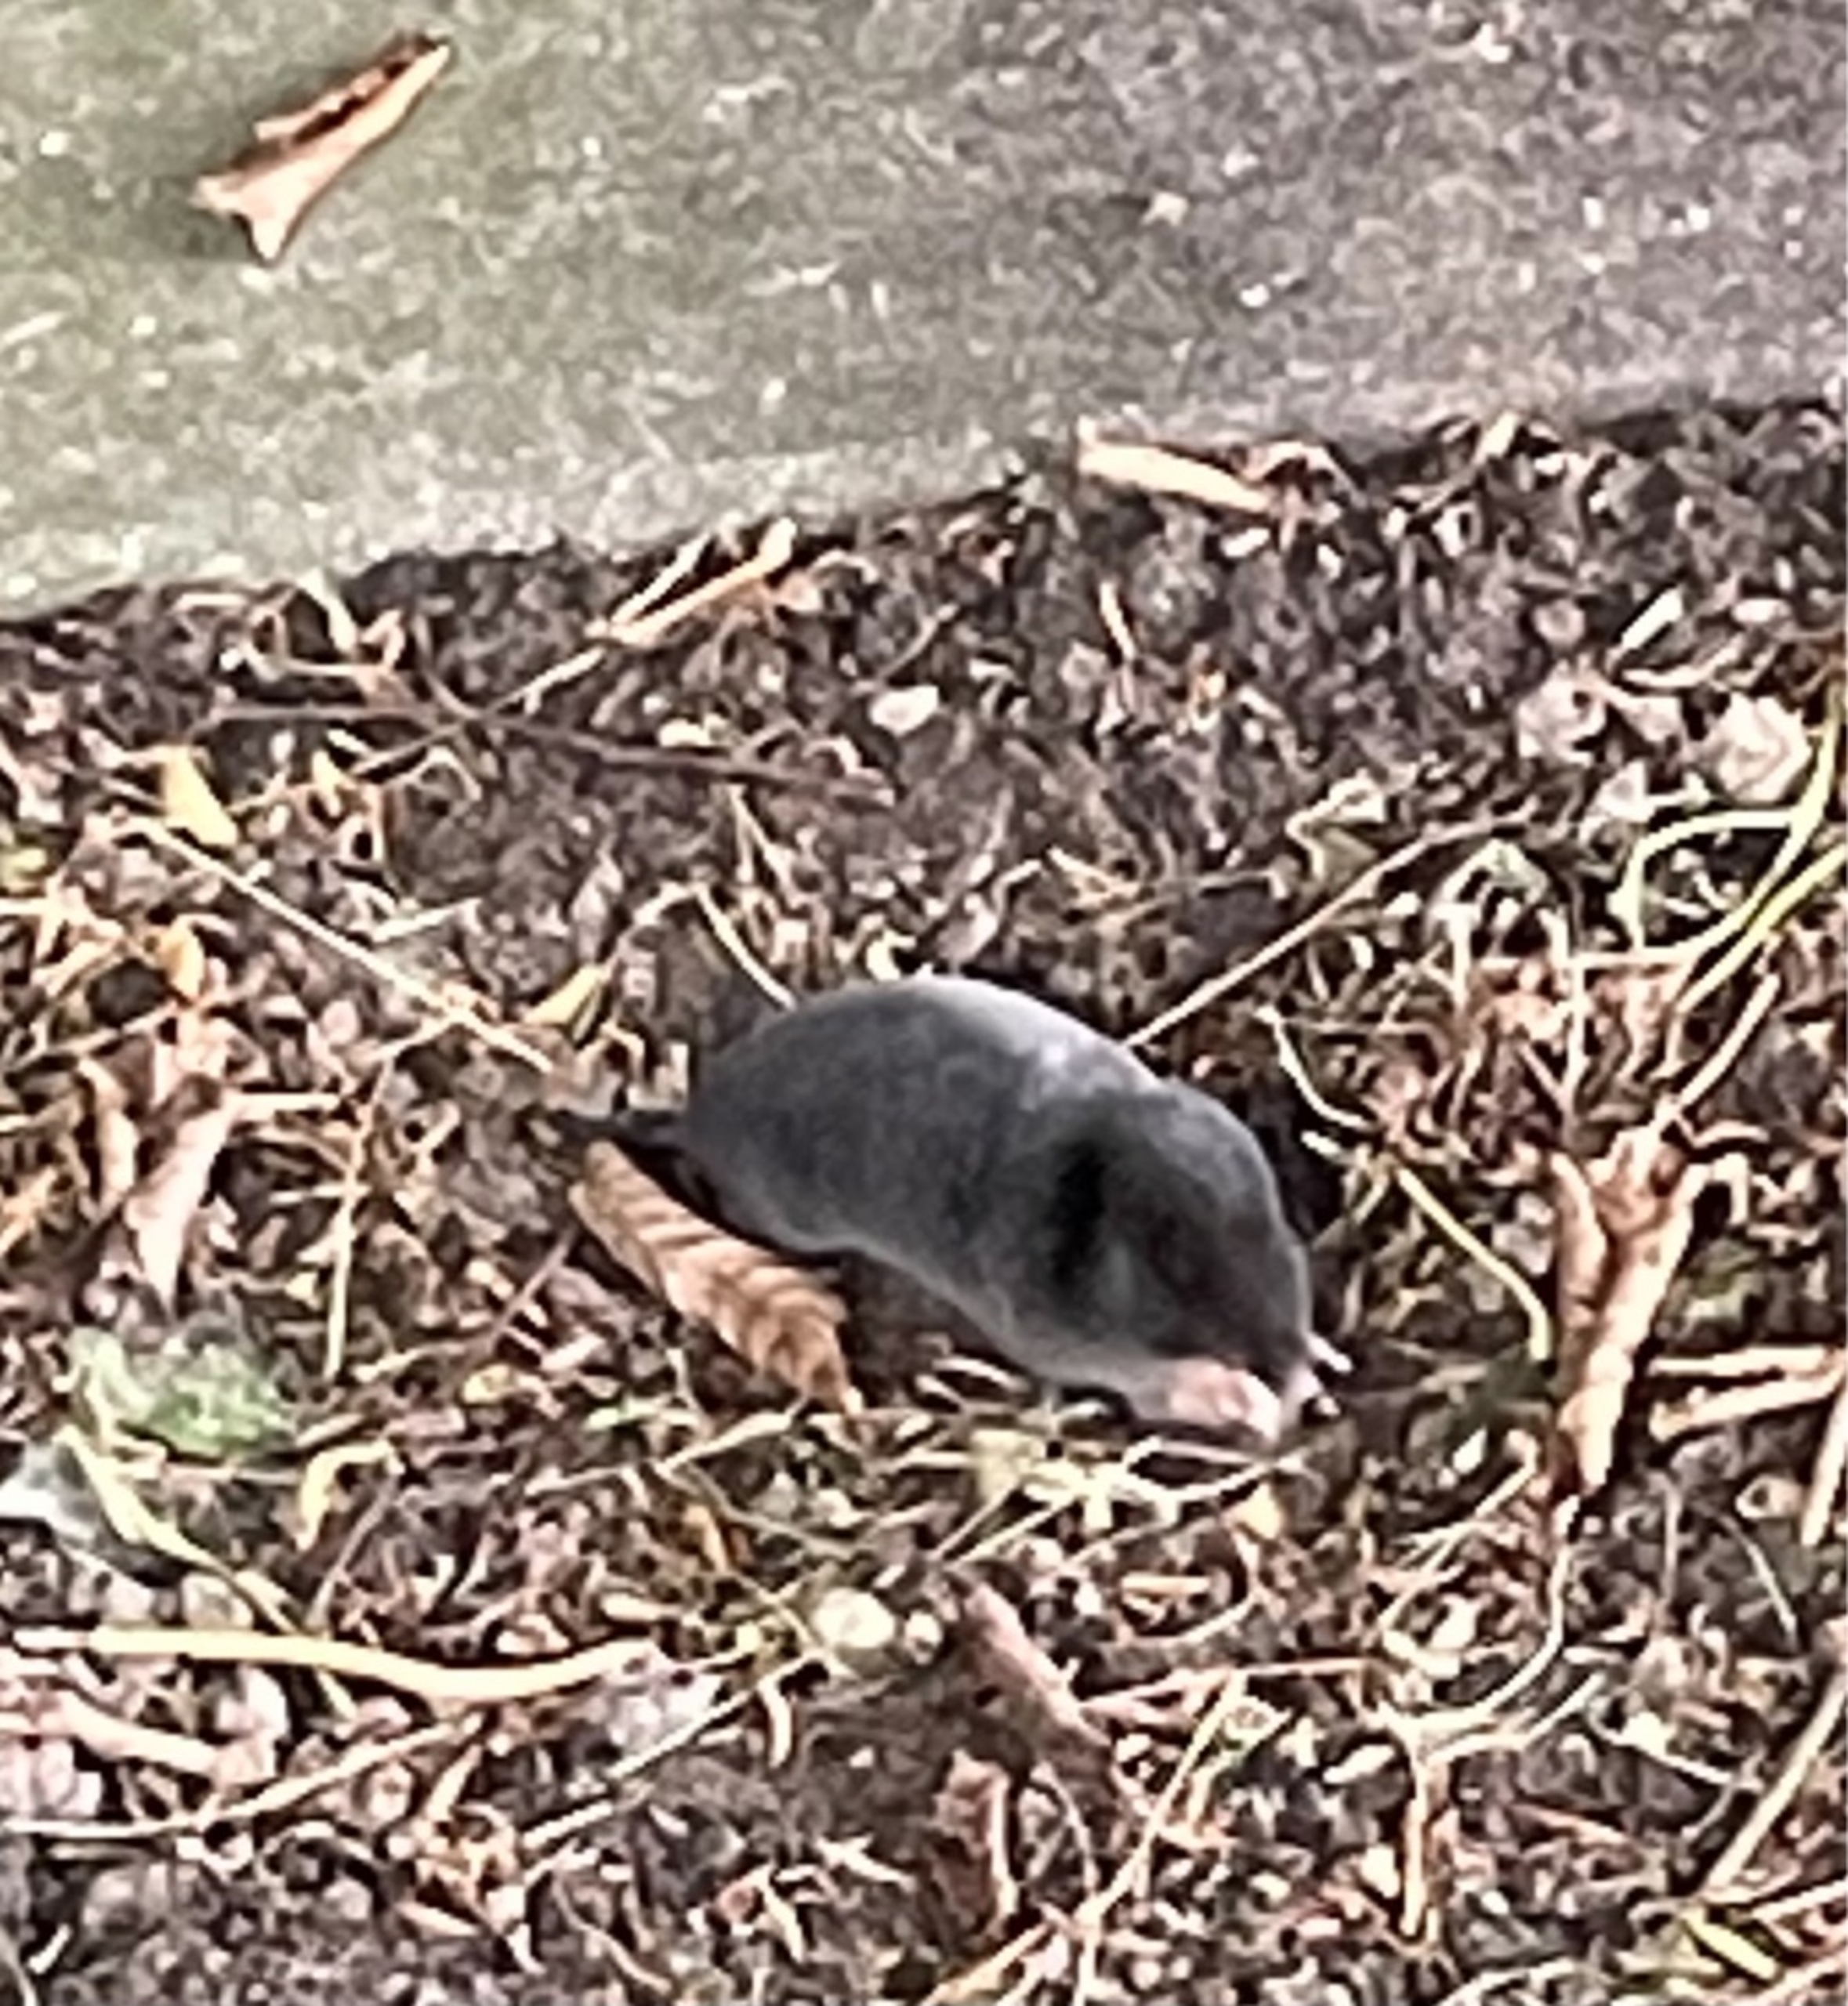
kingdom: Animalia
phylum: Chordata
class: Mammalia
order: Soricomorpha
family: Talpidae
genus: Talpa
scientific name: Talpa europaea
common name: Muldvarp
